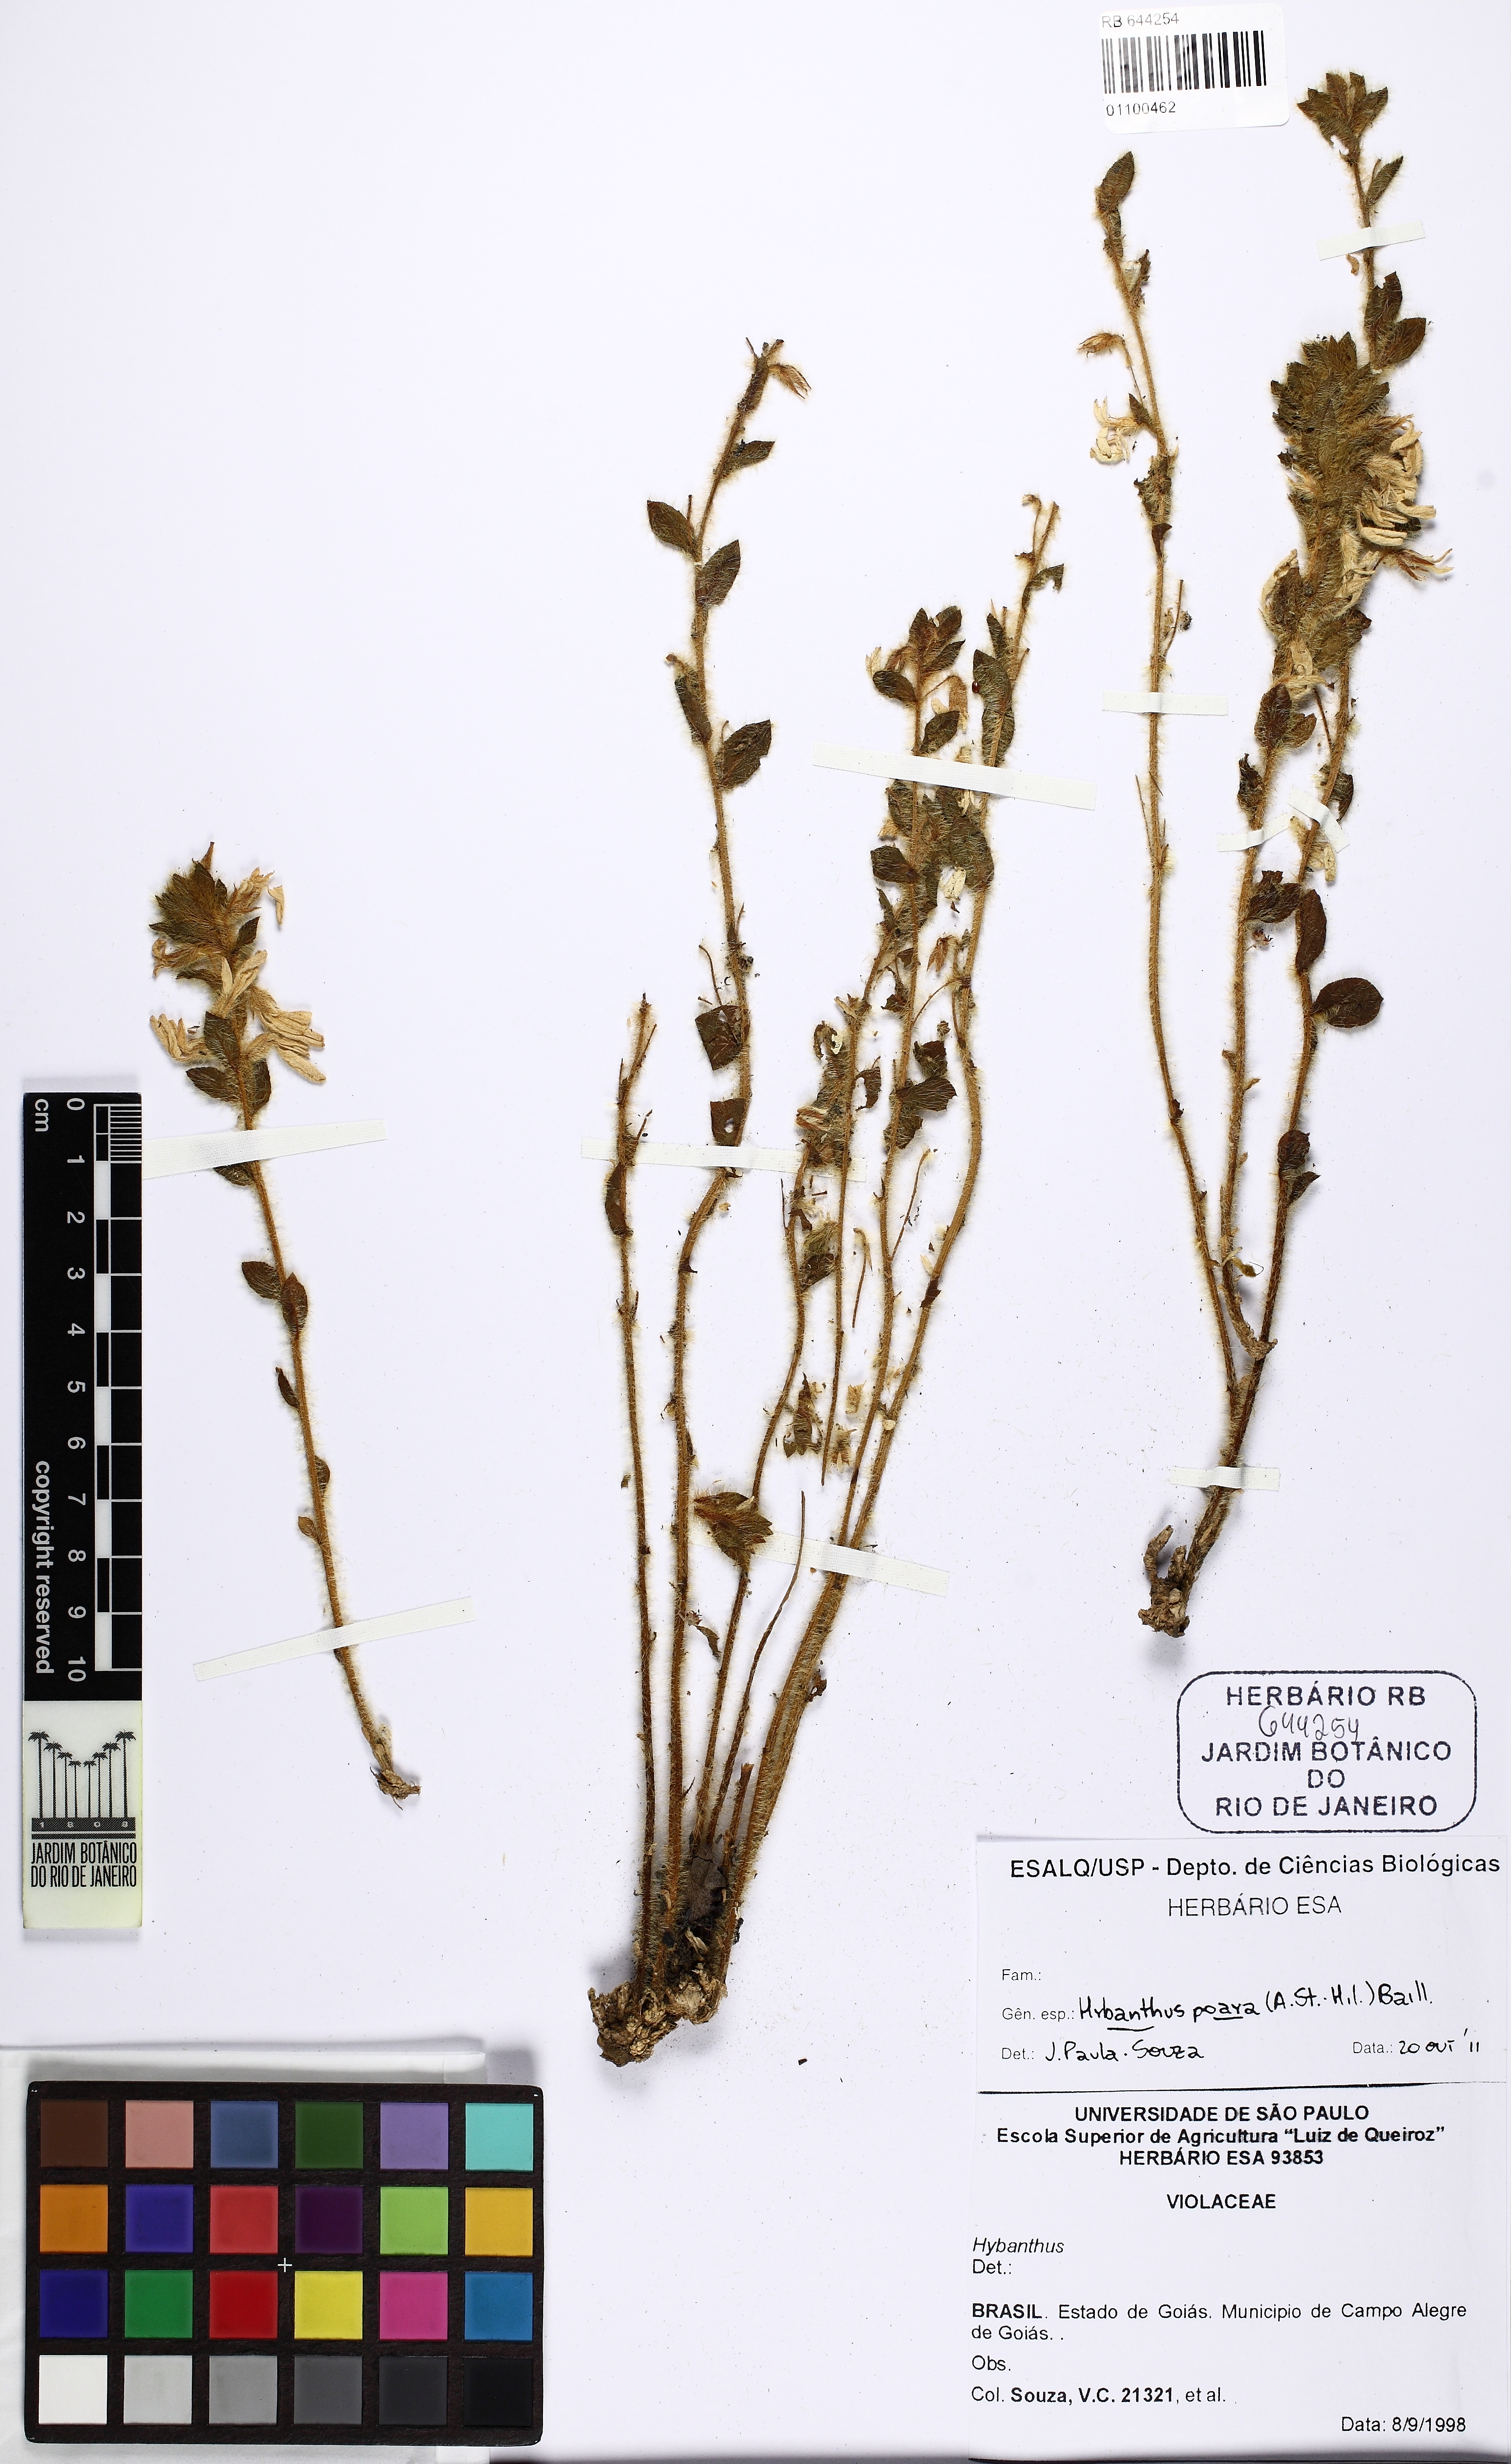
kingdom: Plantae
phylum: Tracheophyta
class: Magnoliopsida
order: Malpighiales
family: Violaceae
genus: Pombalia
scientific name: Pombalia poaya
